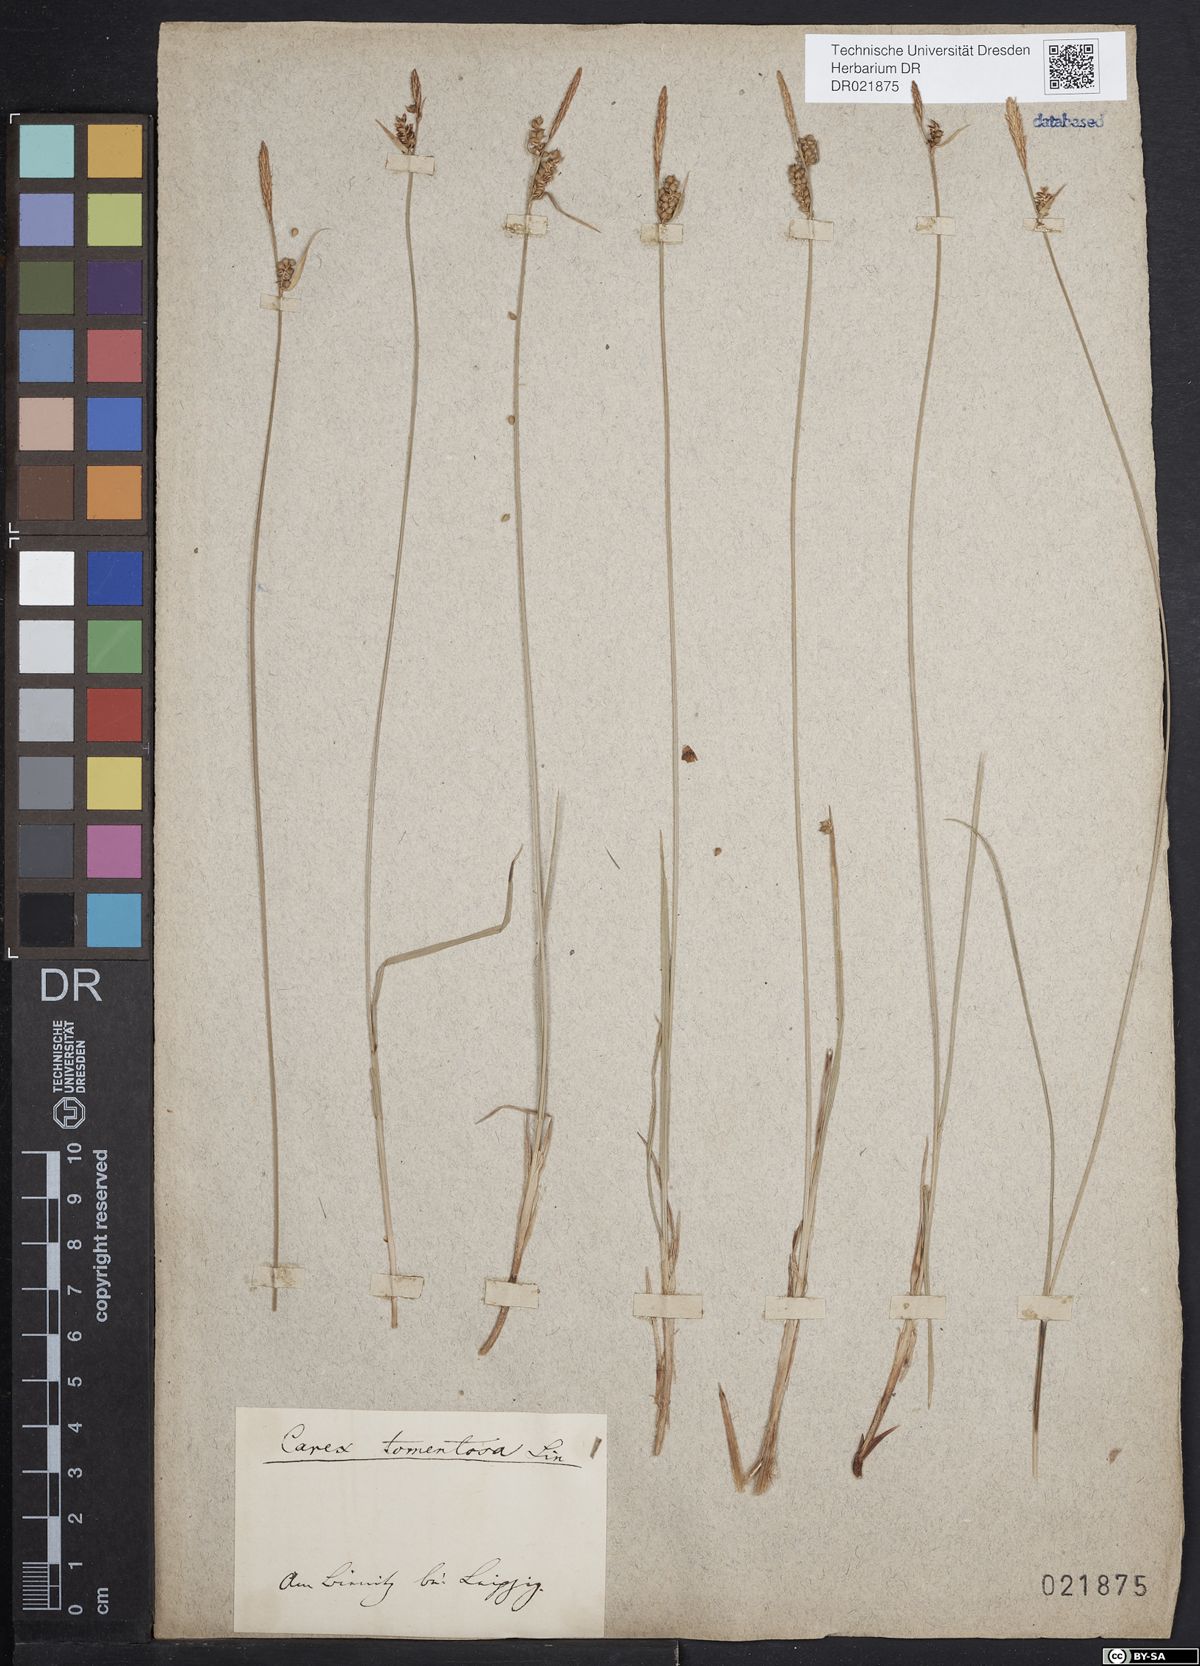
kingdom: Plantae
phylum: Tracheophyta
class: Liliopsida
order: Poales
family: Cyperaceae
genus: Carex
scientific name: Carex tomentosa
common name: Downy-fruited sedge
